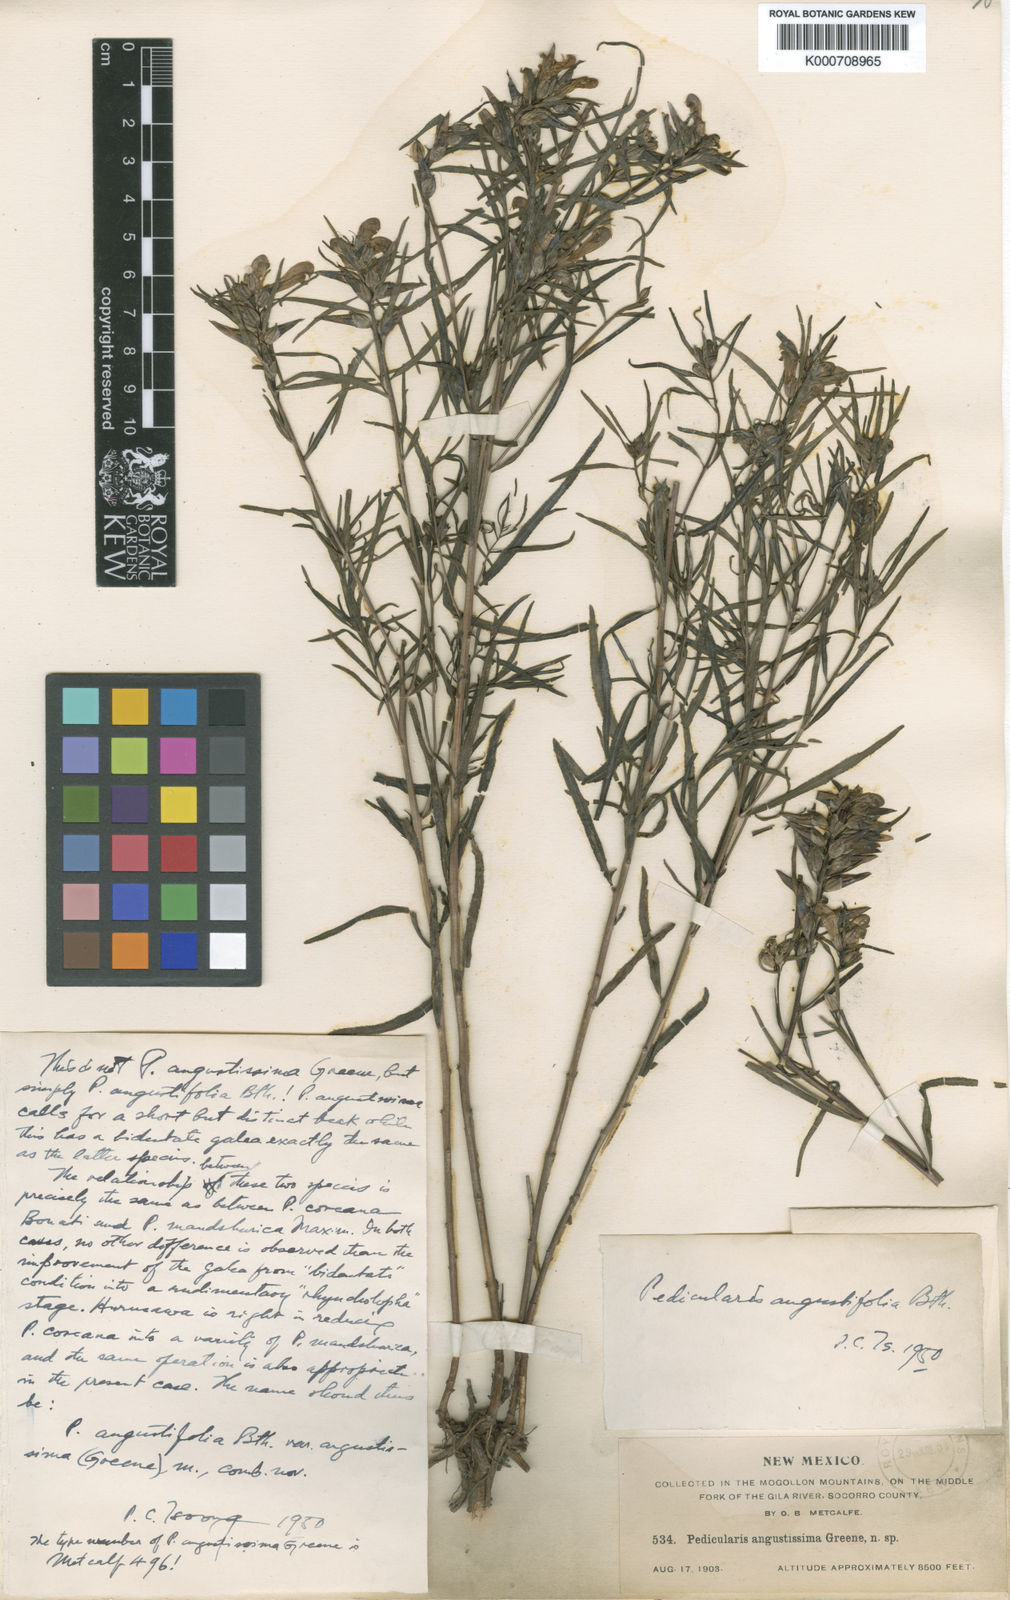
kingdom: Plantae
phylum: Tracheophyta
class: Magnoliopsida
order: Lamiales
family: Orobanchaceae
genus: Pedicularis
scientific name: Pedicularis angustifolia
